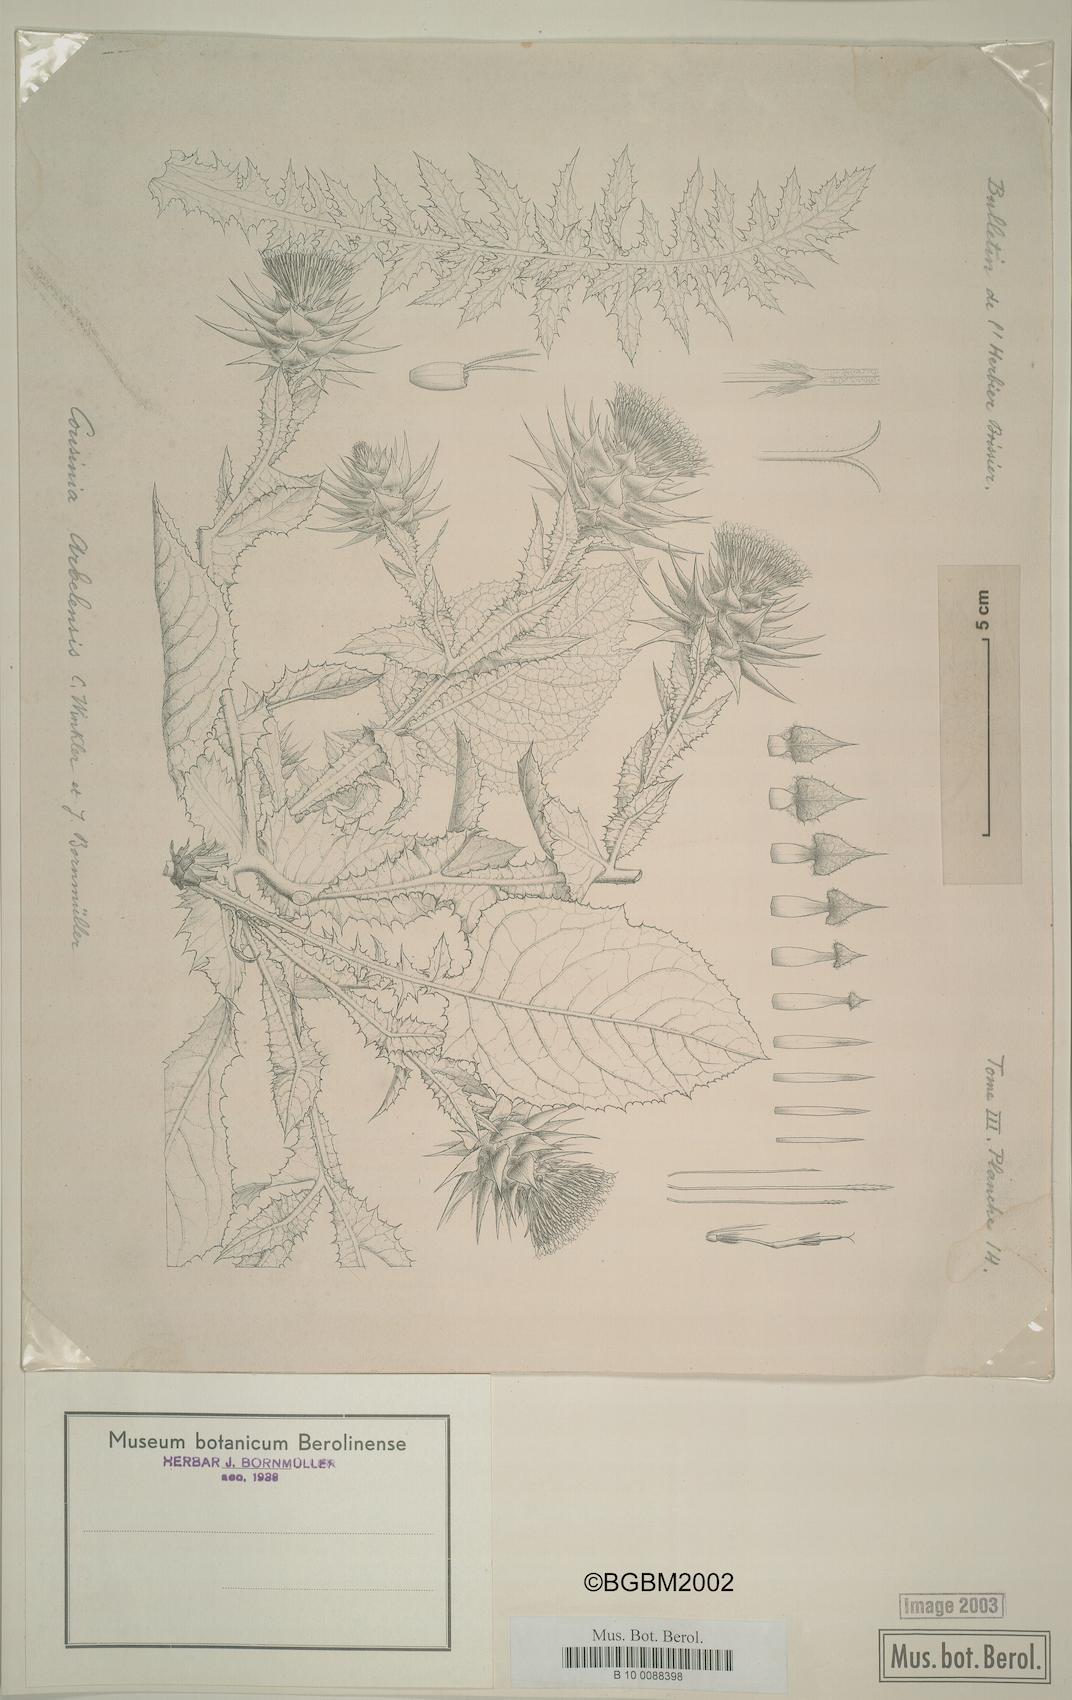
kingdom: Plantae
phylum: Tracheophyta
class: Magnoliopsida
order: Asterales
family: Asteraceae
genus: Cousinia
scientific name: Cousinia aintabensis
